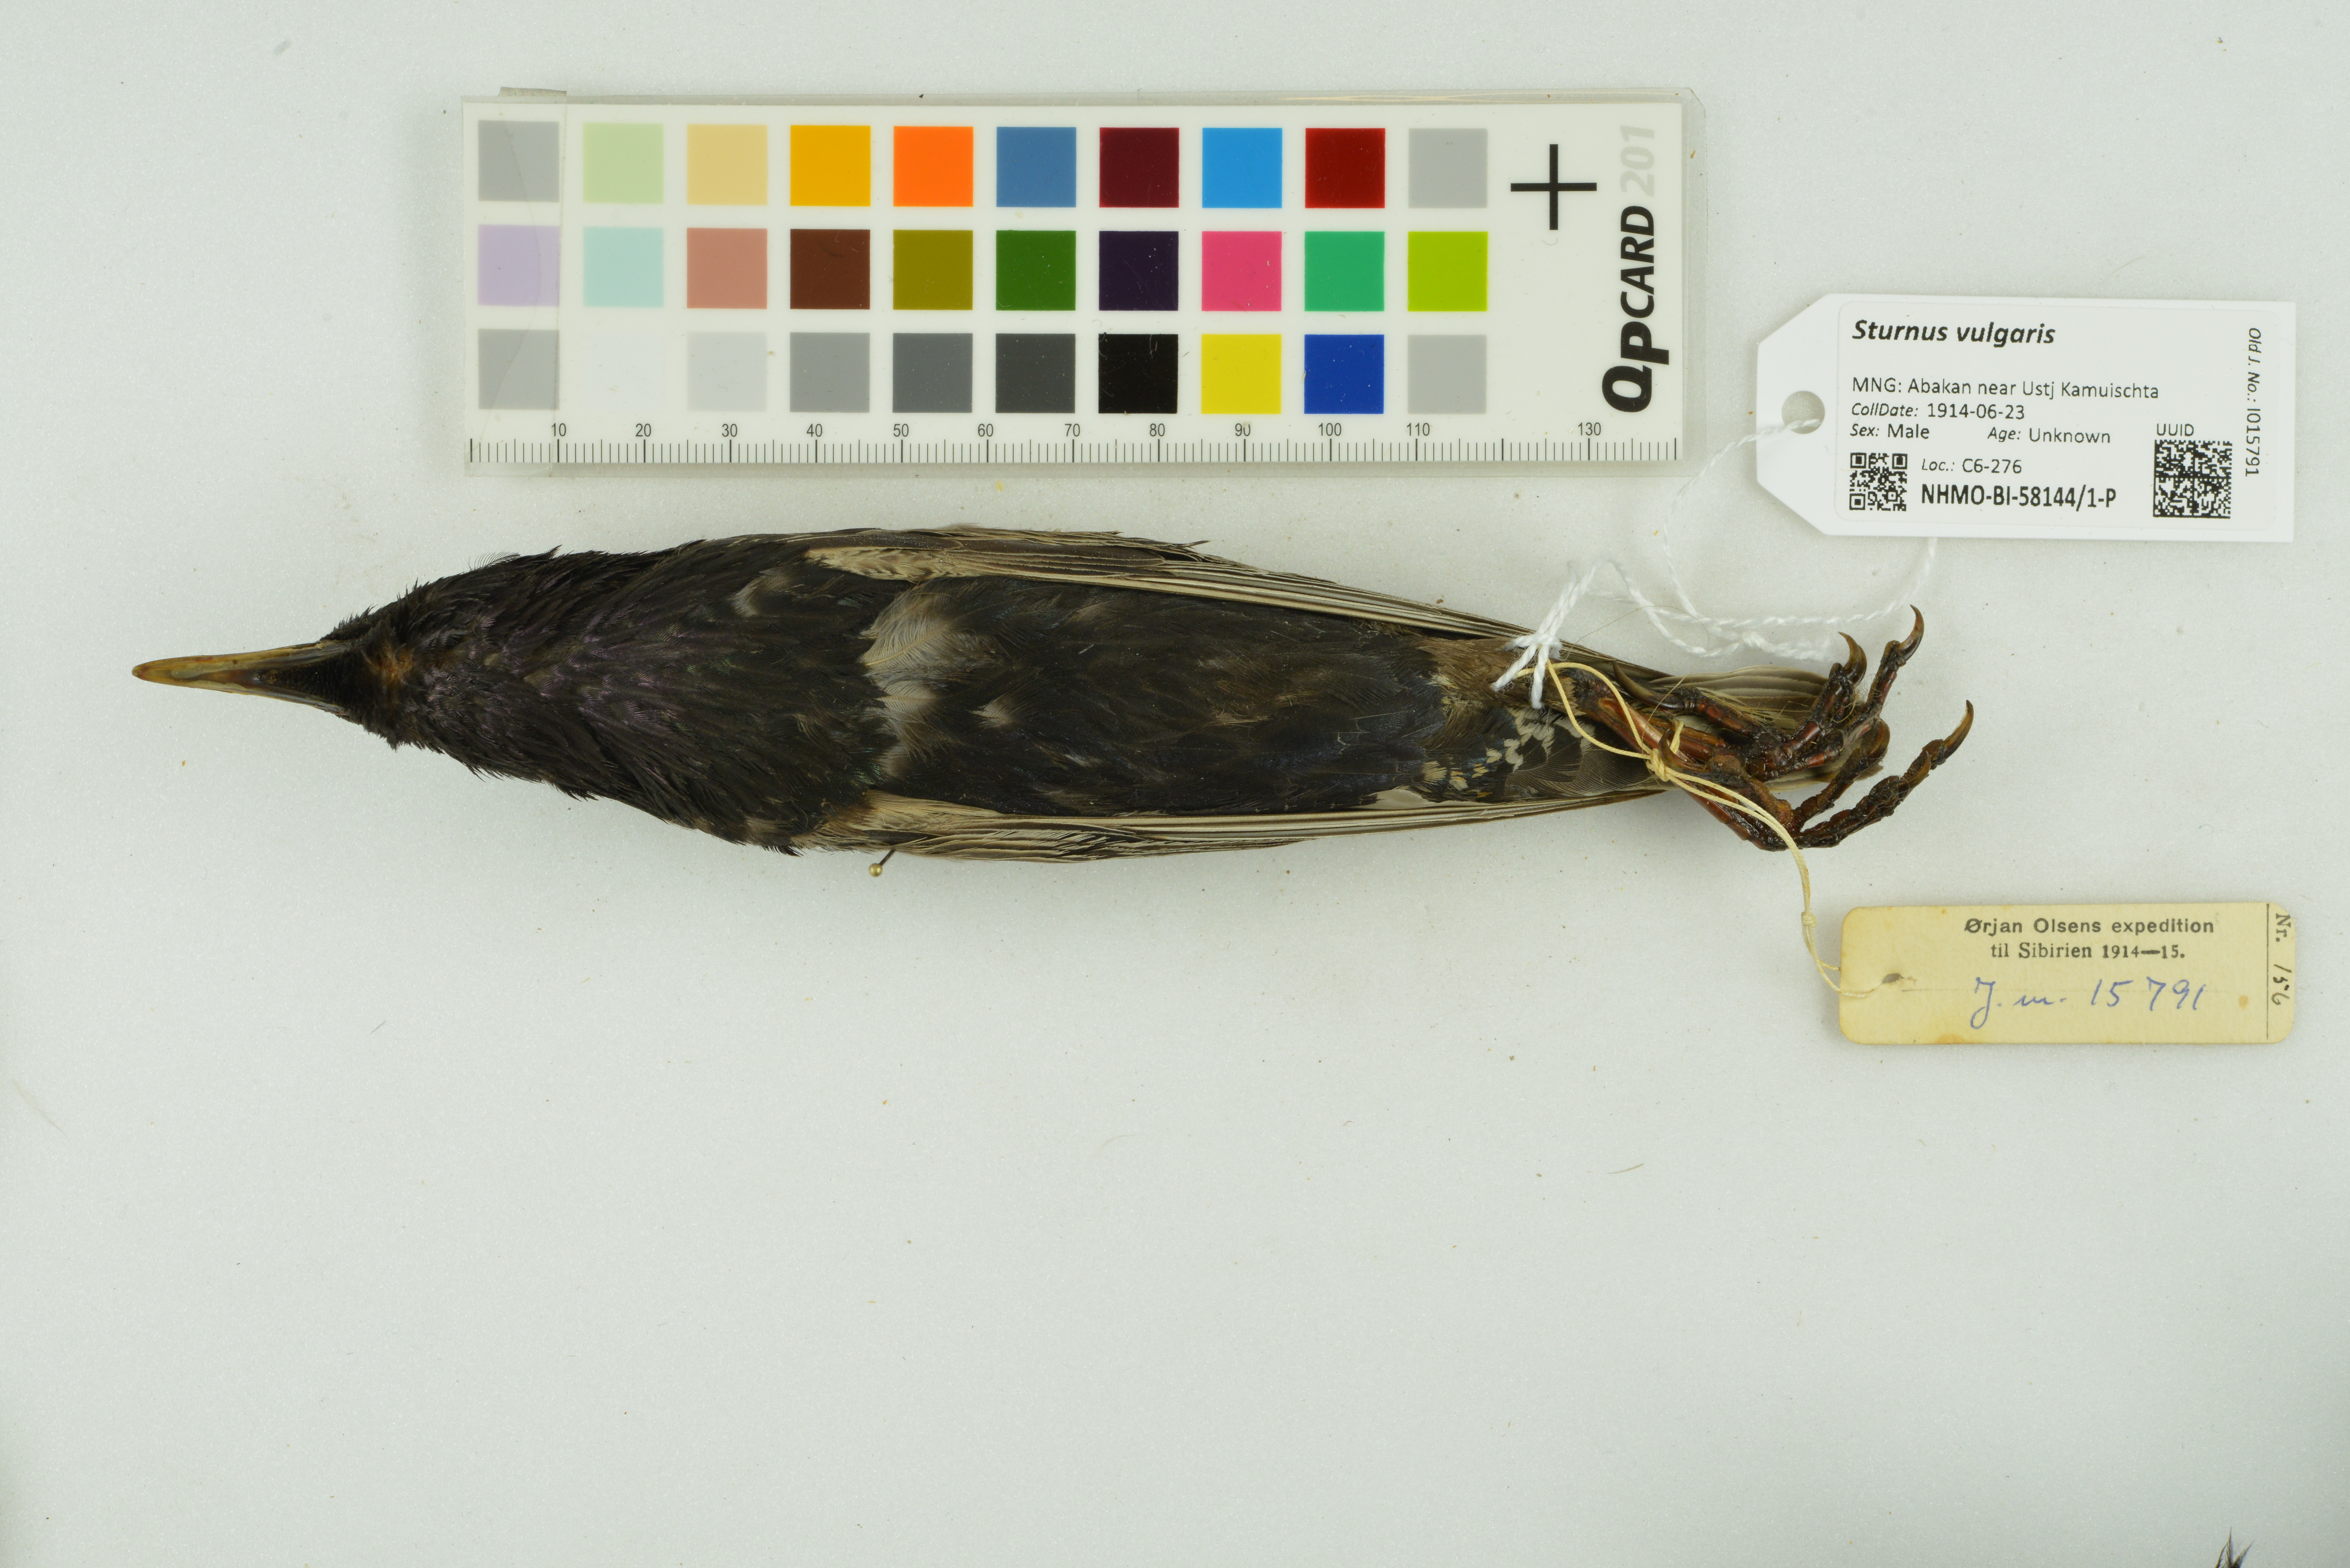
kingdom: Animalia
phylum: Chordata
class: Aves
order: Passeriformes
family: Sturnidae
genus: Sturnus
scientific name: Sturnus vulgaris
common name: Common starling
